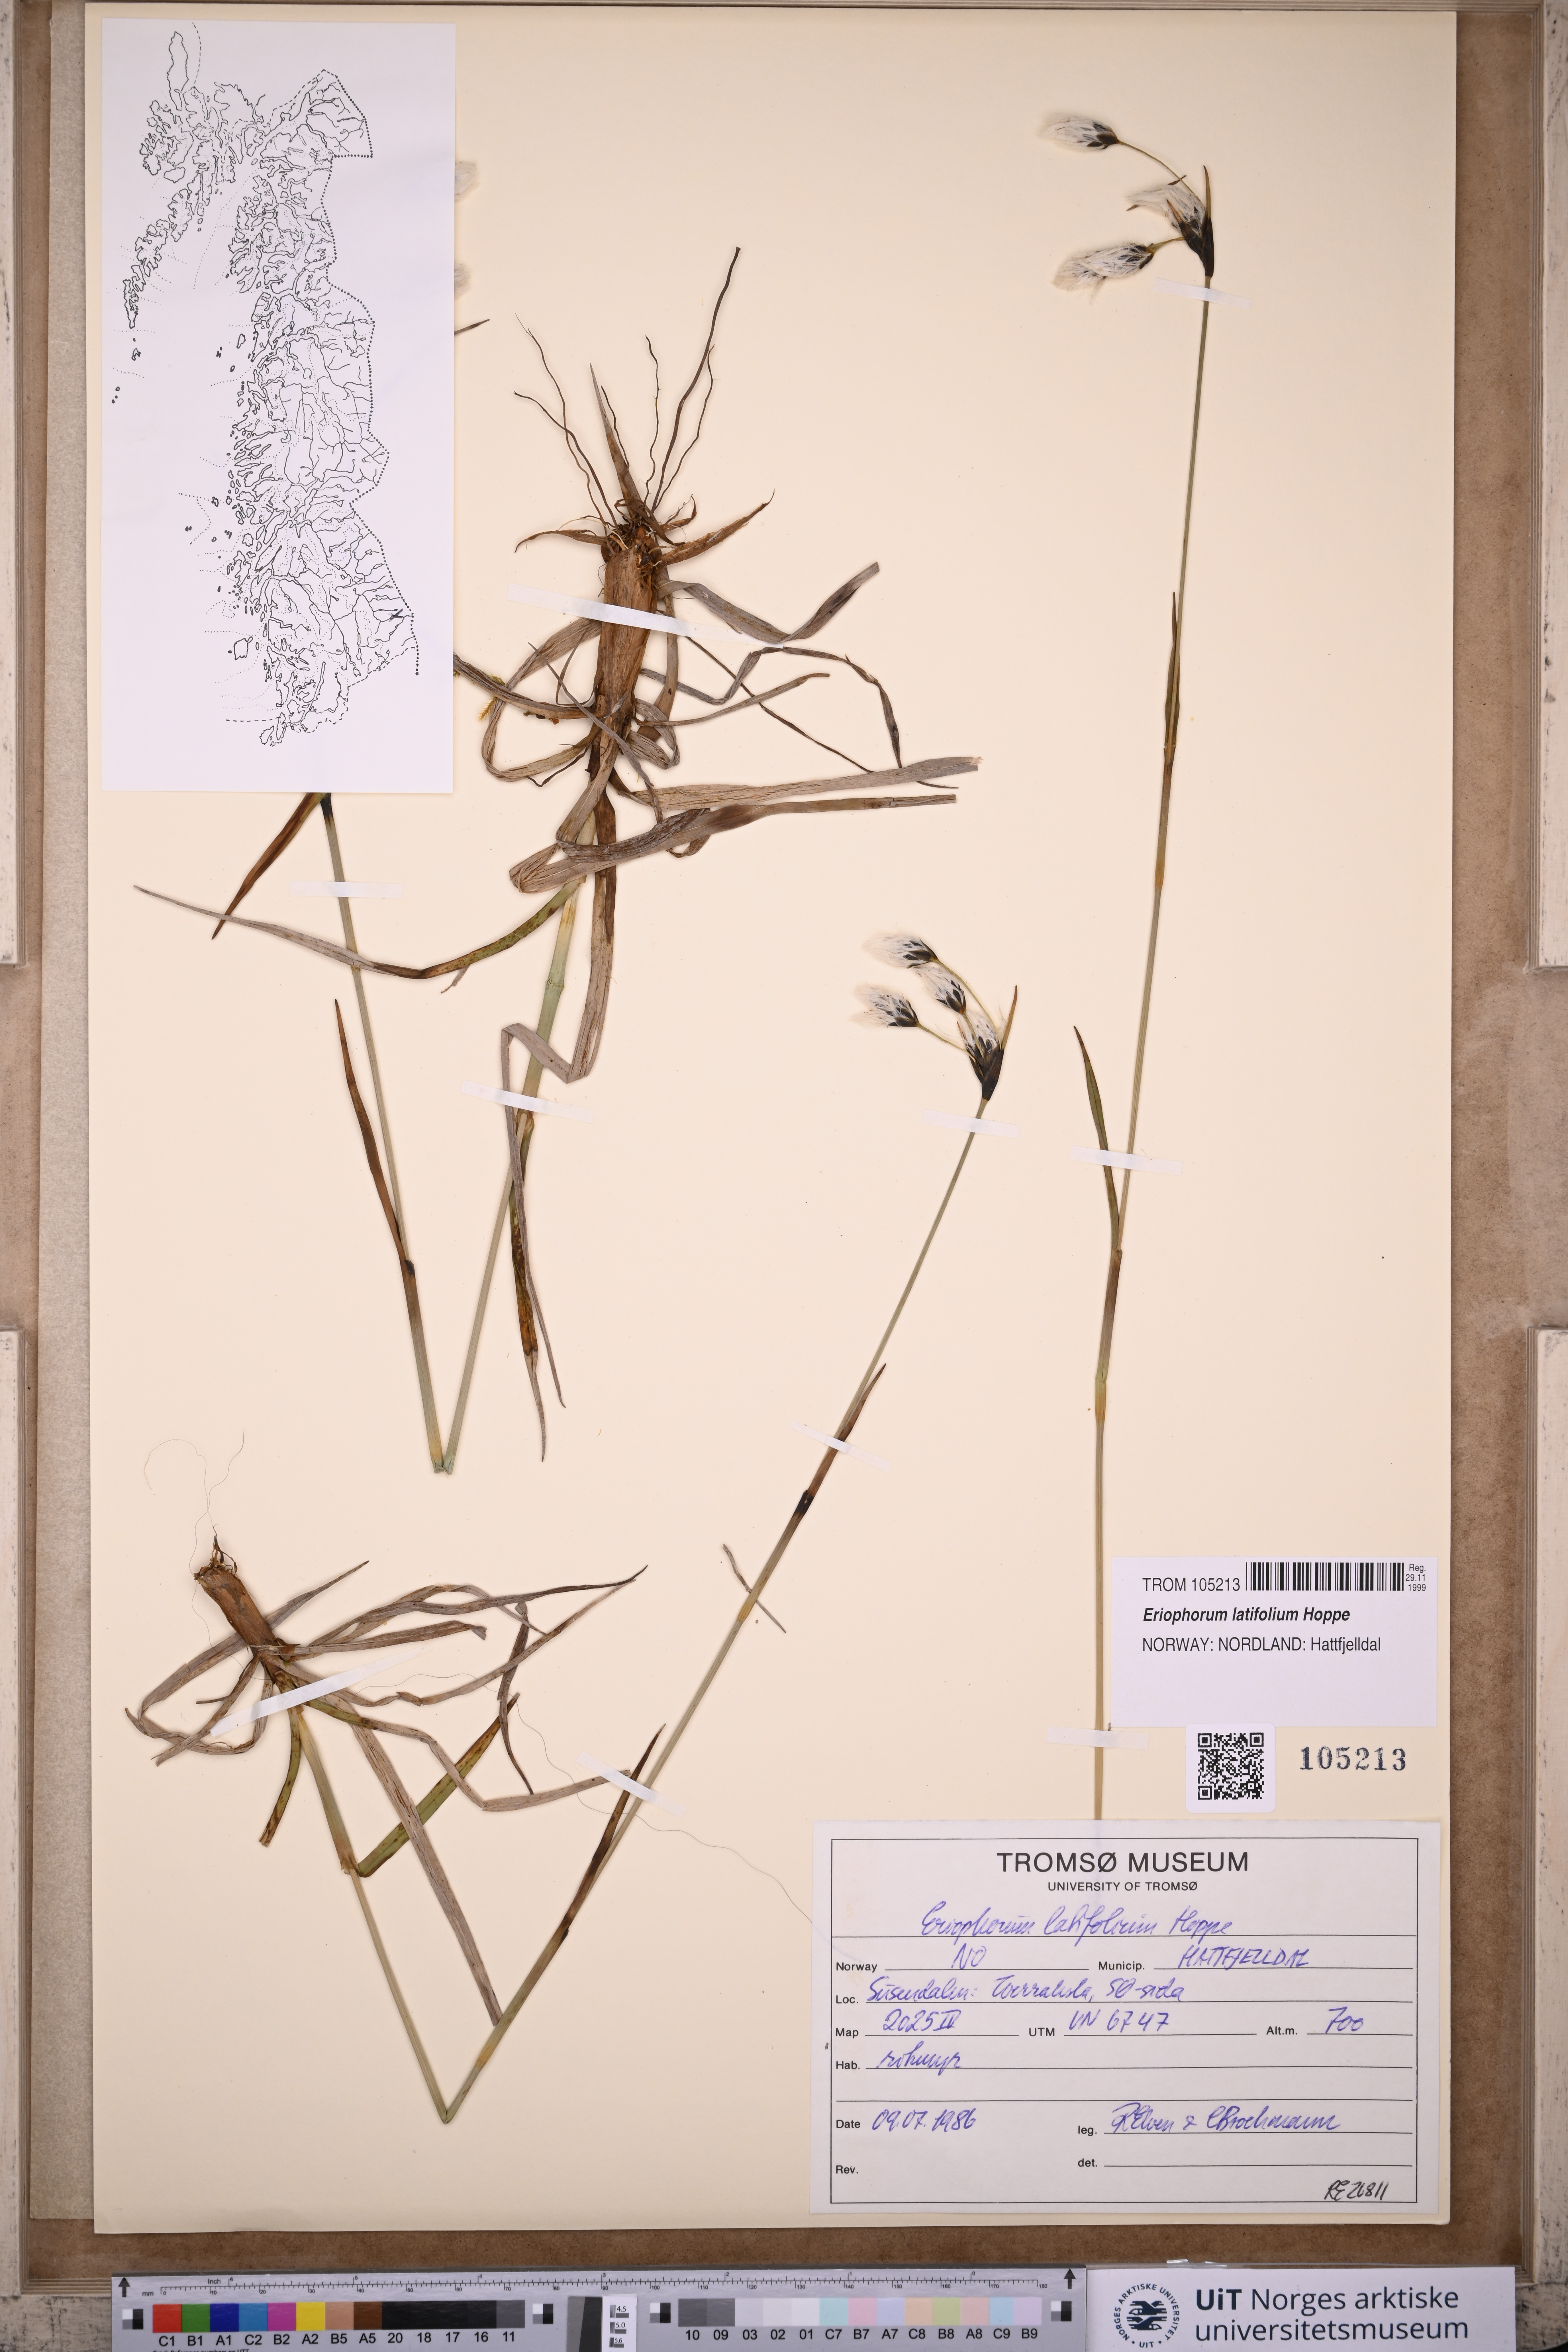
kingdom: Plantae
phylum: Tracheophyta
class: Liliopsida
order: Poales
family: Cyperaceae
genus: Eriophorum
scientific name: Eriophorum latifolium
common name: Broad-leaved cottongrass
